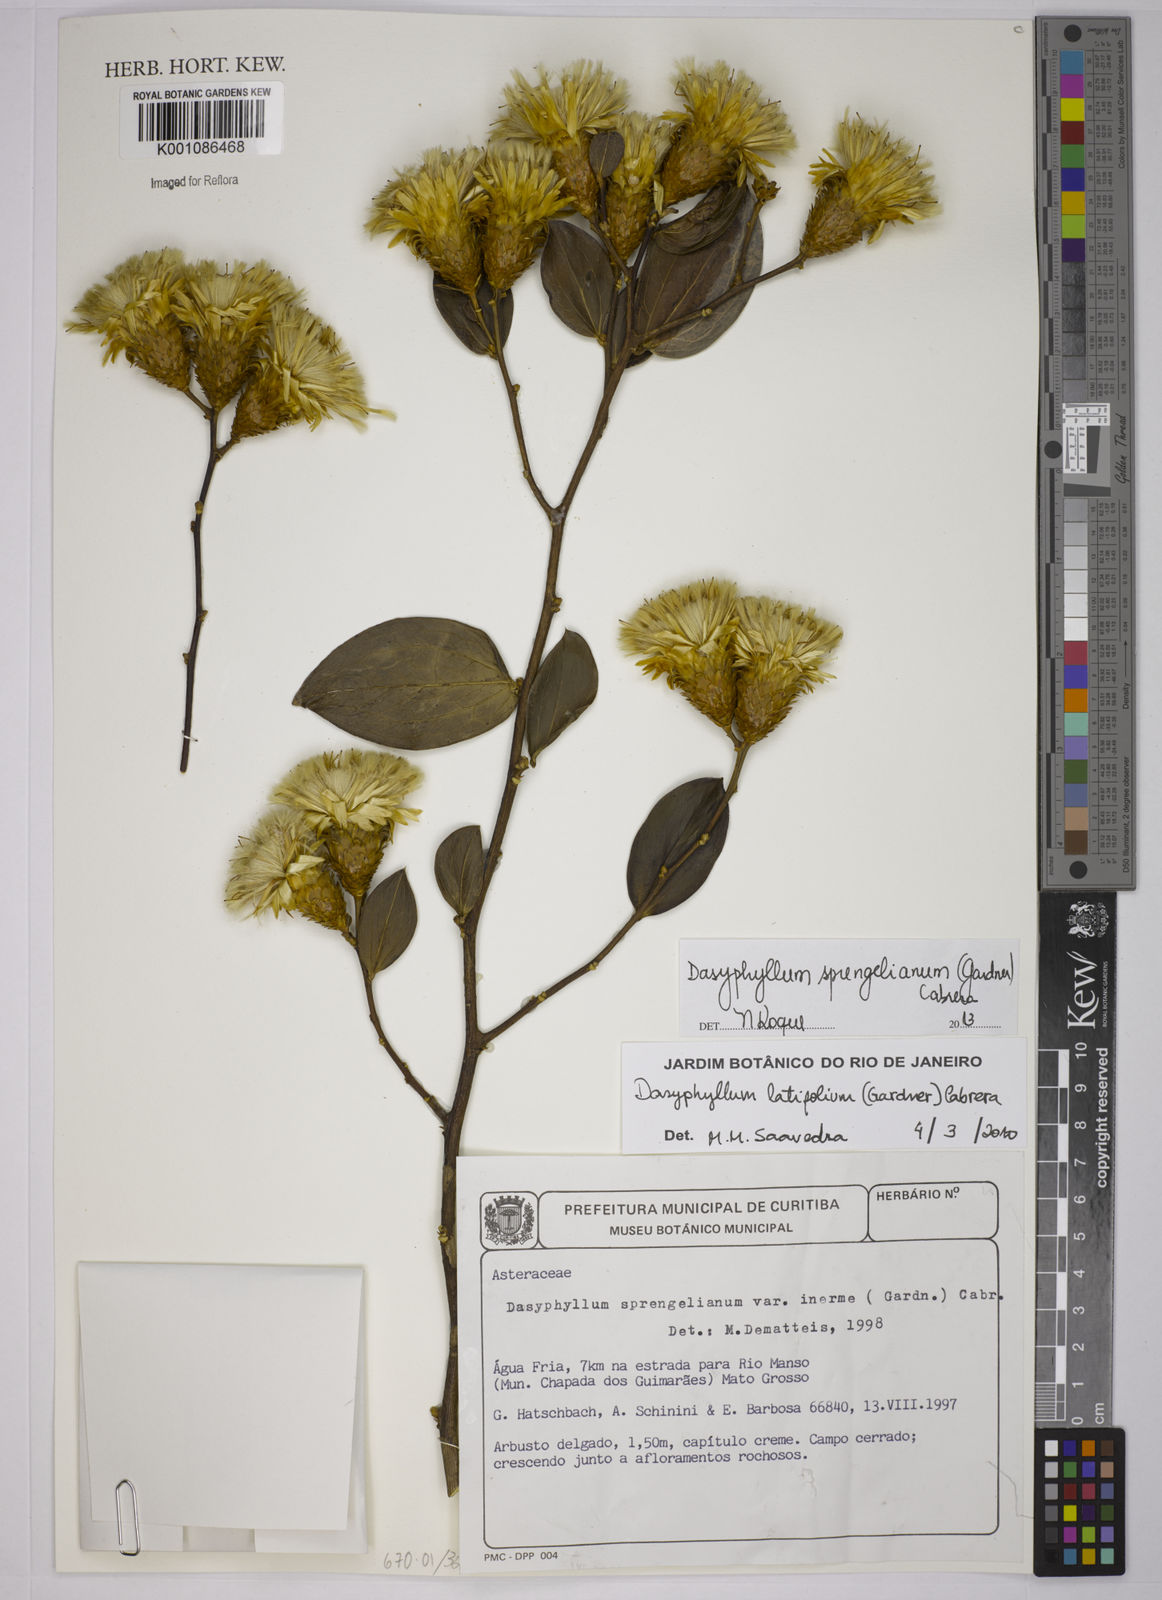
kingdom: Plantae
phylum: Tracheophyta
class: Magnoliopsida
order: Asterales
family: Asteraceae
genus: Dasyphyllum
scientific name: Dasyphyllum sprengelianum
